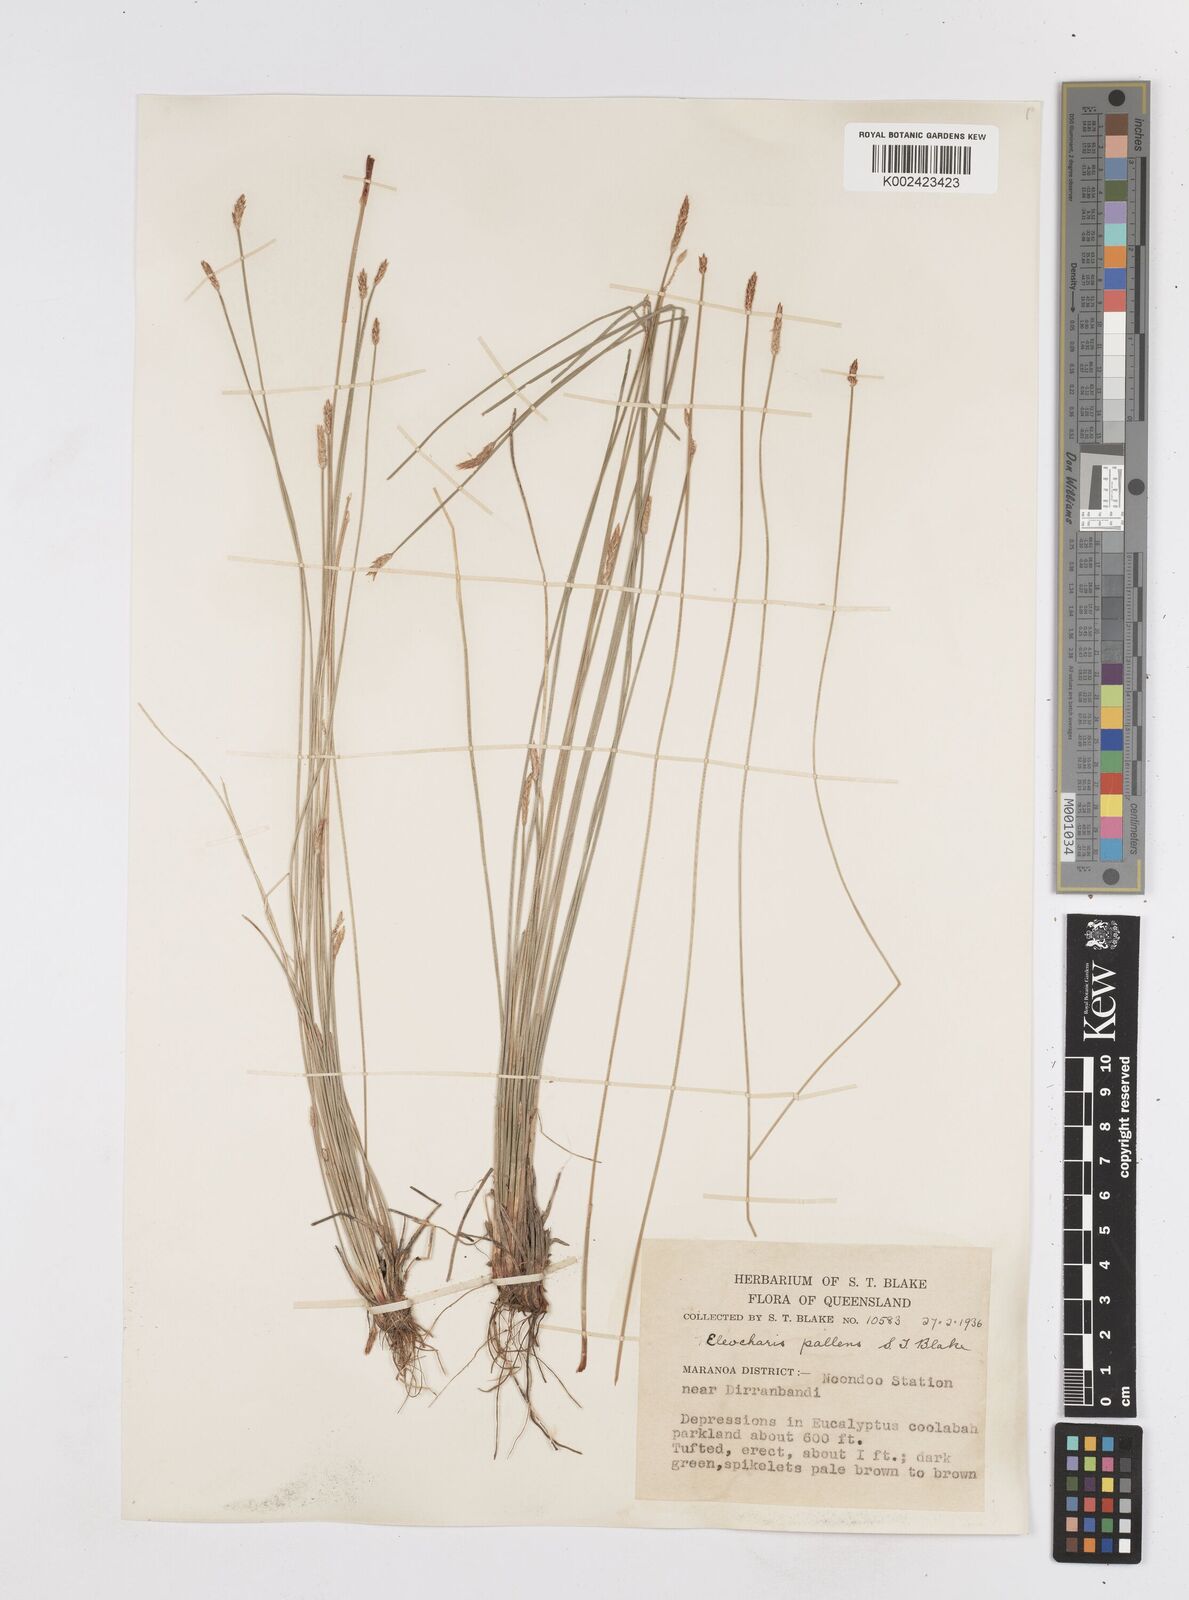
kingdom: Plantae
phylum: Tracheophyta
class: Liliopsida
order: Poales
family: Cyperaceae
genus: Eleocharis
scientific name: Eleocharis acuta
